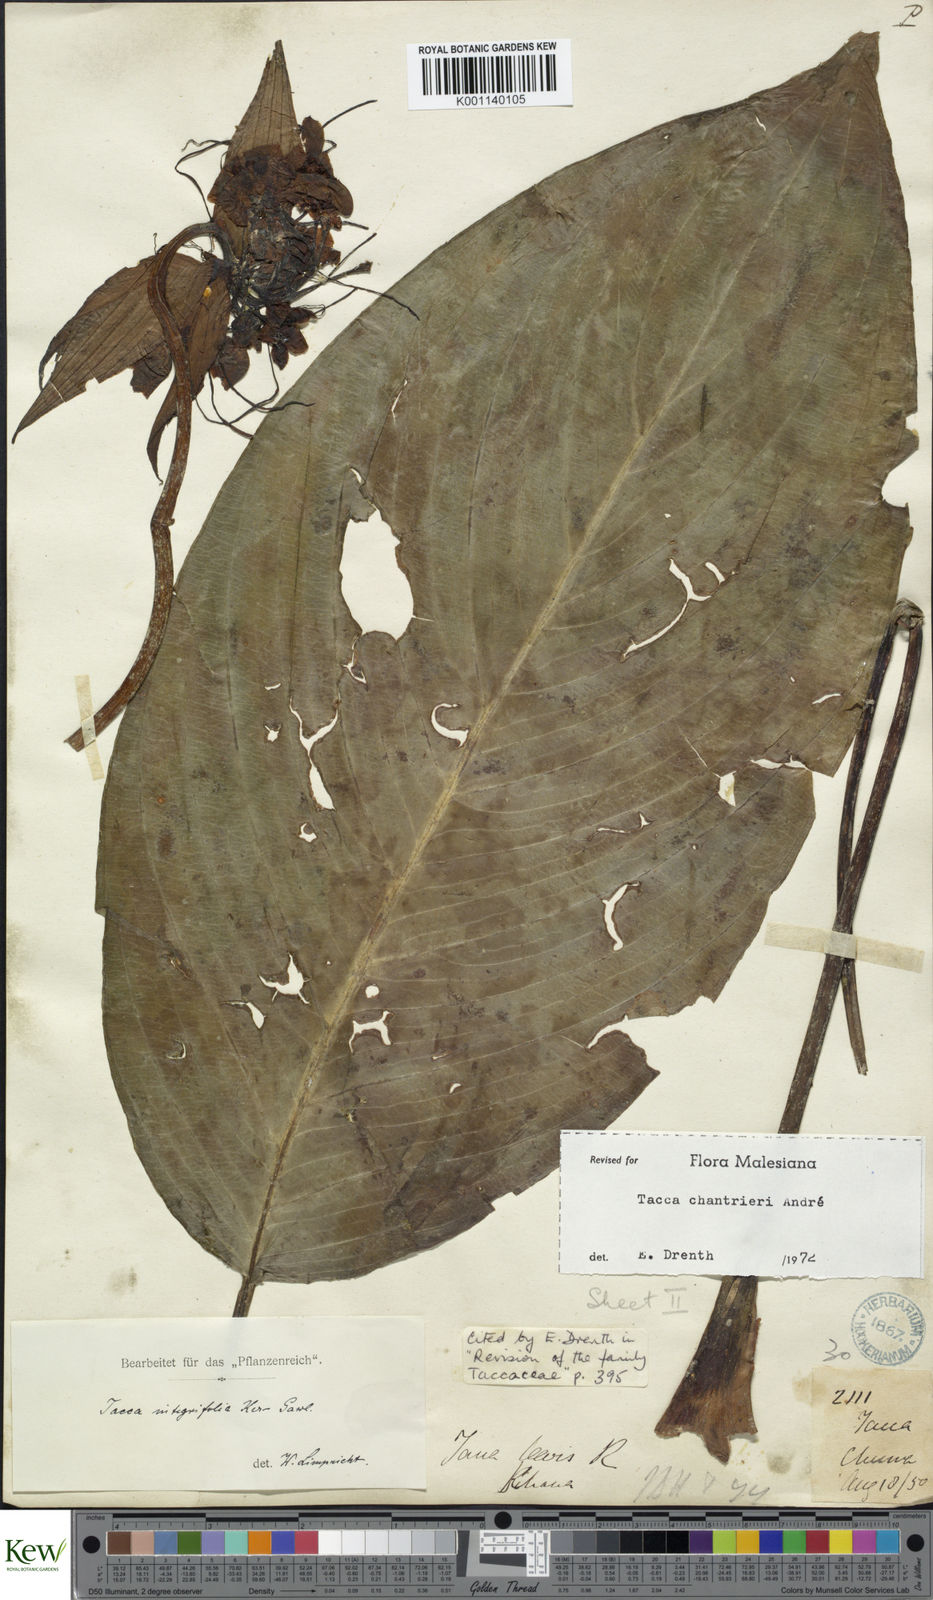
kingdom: Plantae
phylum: Tracheophyta
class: Liliopsida
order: Dioscoreales
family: Dioscoreaceae
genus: Tacca
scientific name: Tacca
